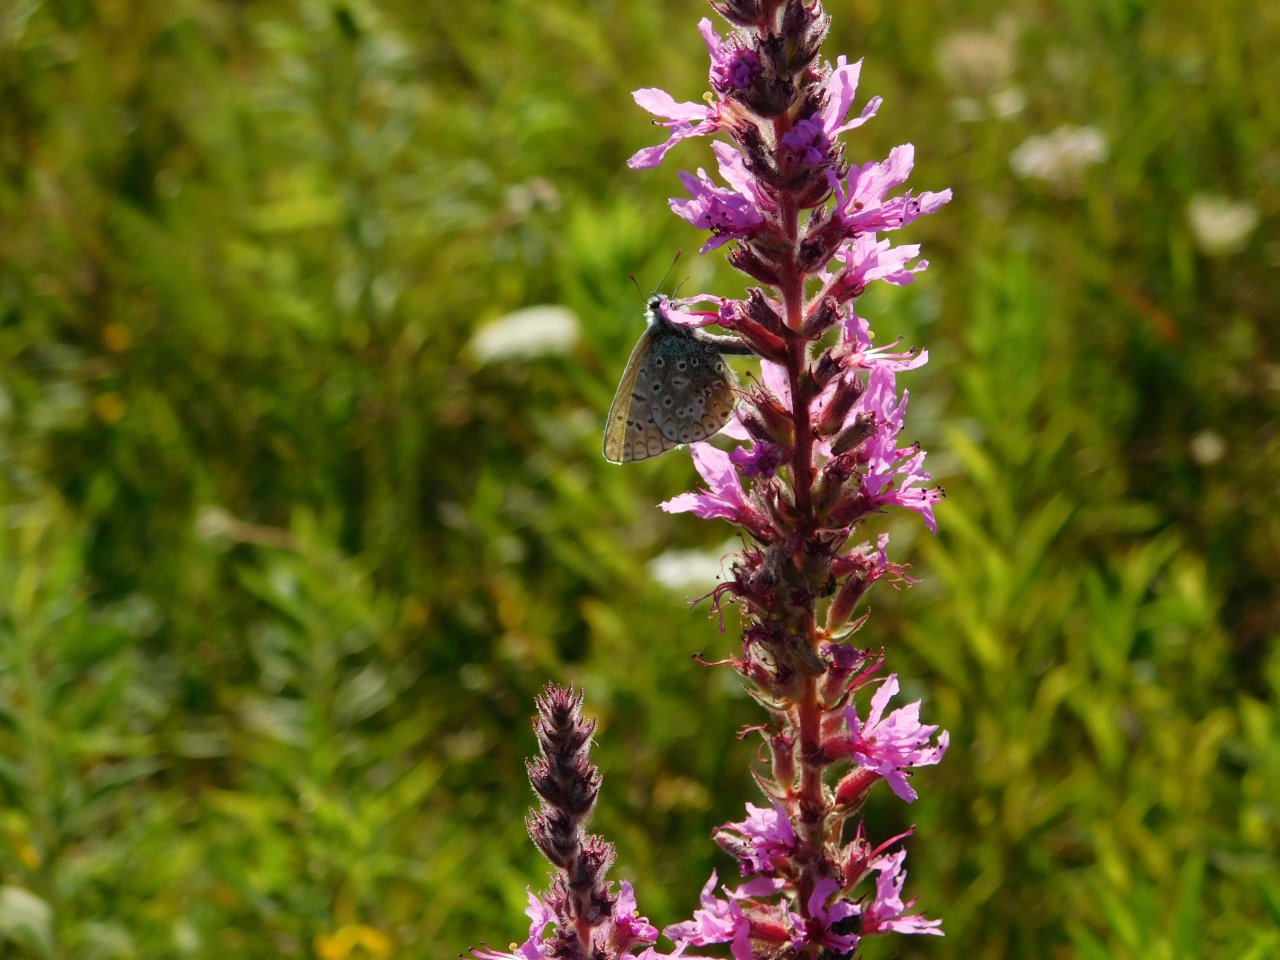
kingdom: Animalia
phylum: Arthropoda
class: Insecta
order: Lepidoptera
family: Lycaenidae
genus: Polyommatus
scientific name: Polyommatus icarus
